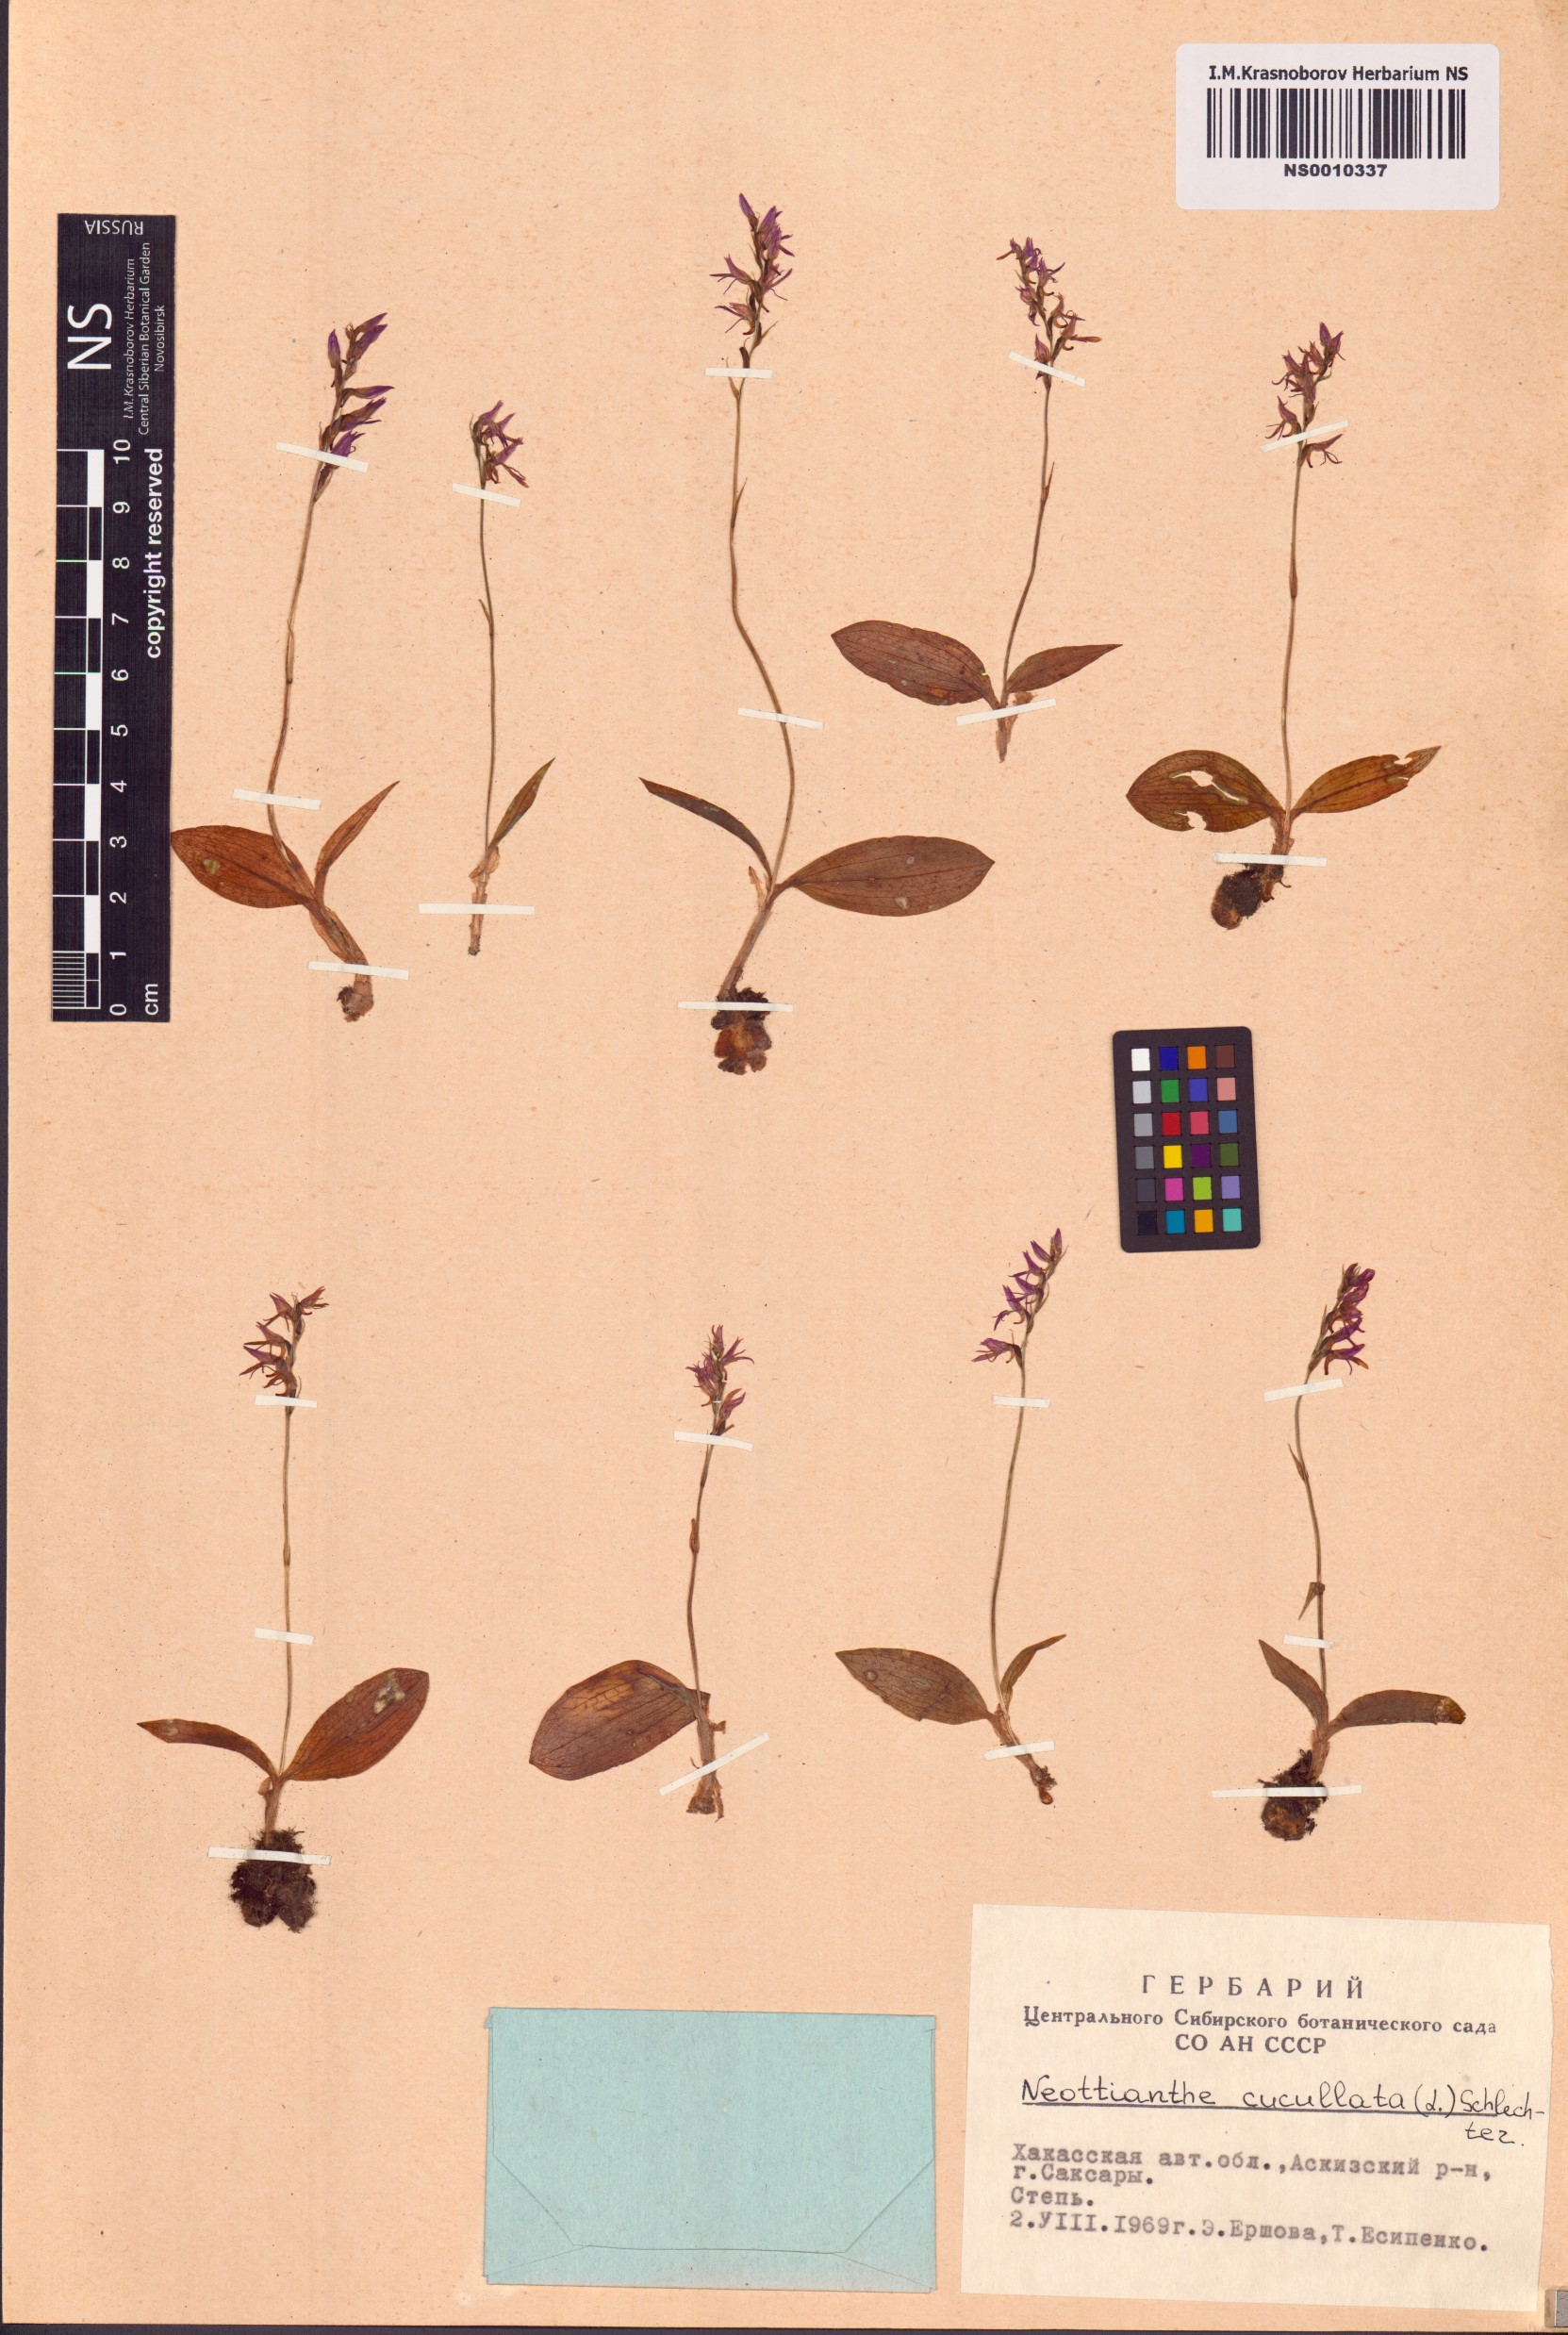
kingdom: Plantae
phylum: Tracheophyta
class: Liliopsida
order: Asparagales
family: Orchidaceae
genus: Hemipilia
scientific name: Hemipilia cucullata
